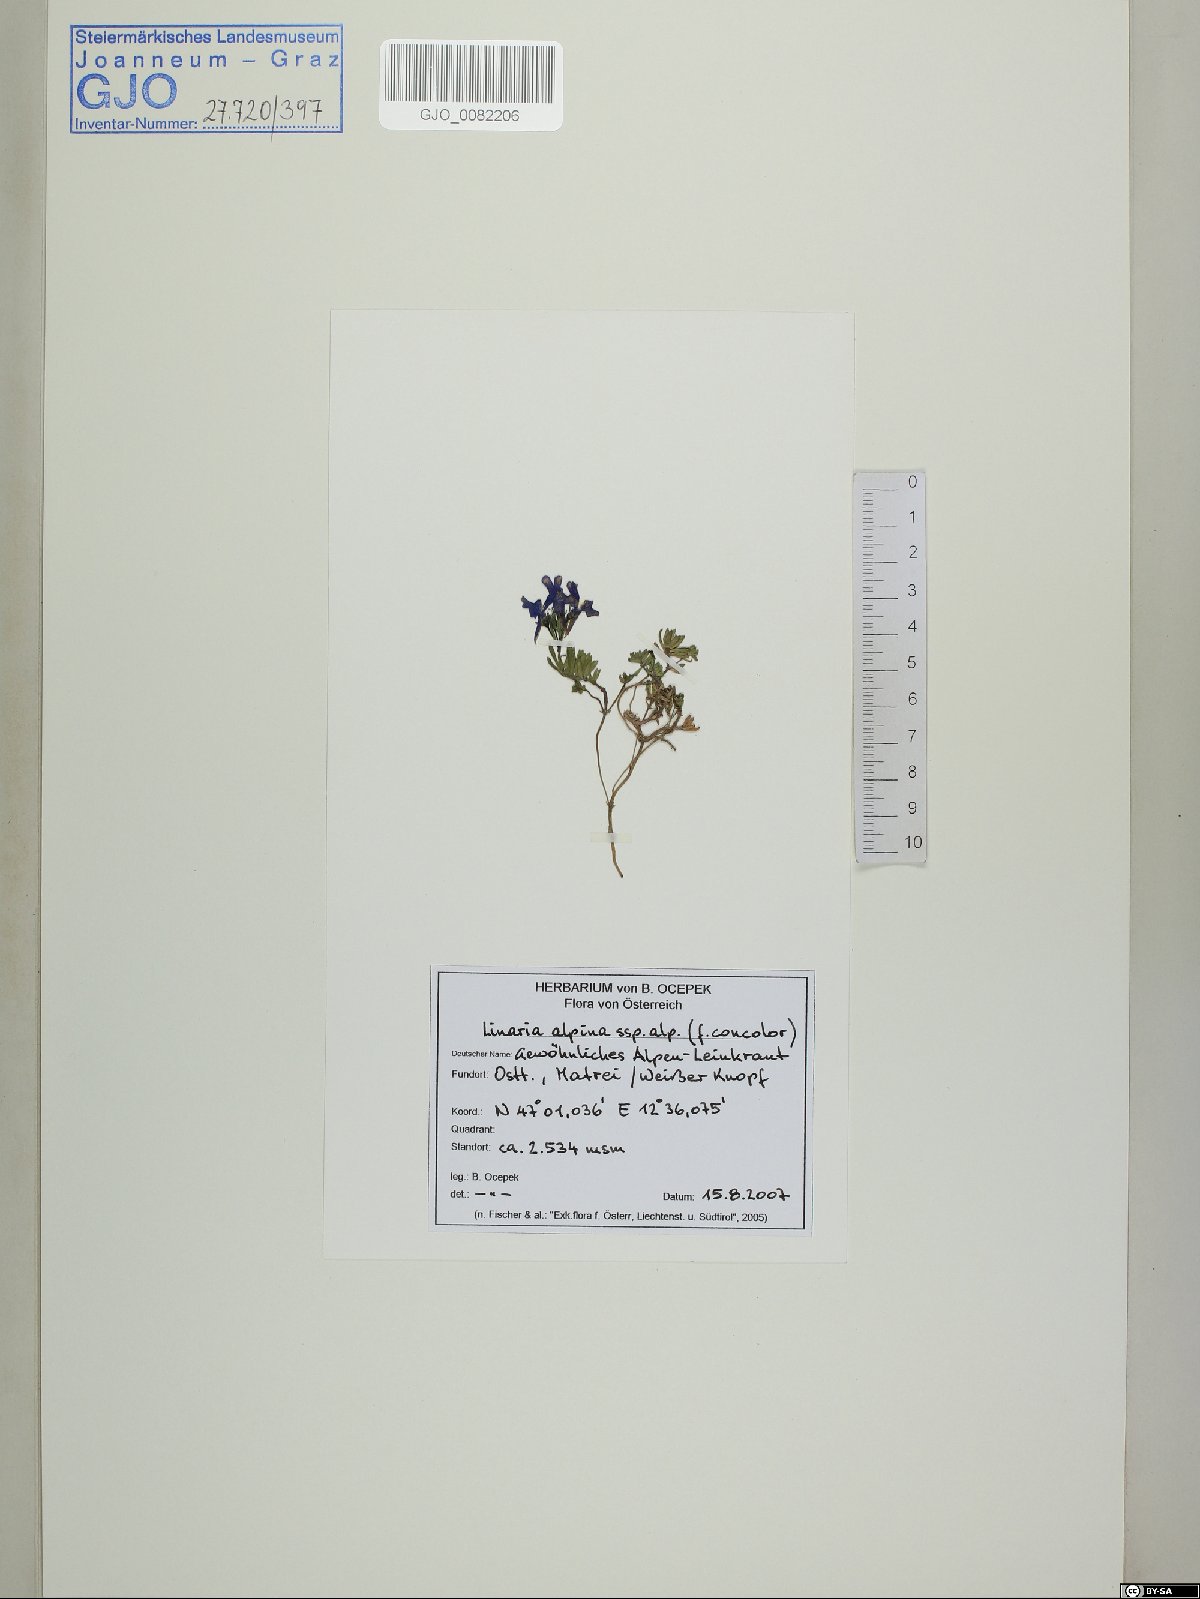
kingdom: Plantae
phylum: Tracheophyta
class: Magnoliopsida
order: Lamiales
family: Plantaginaceae
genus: Linaria
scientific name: Linaria alpina
